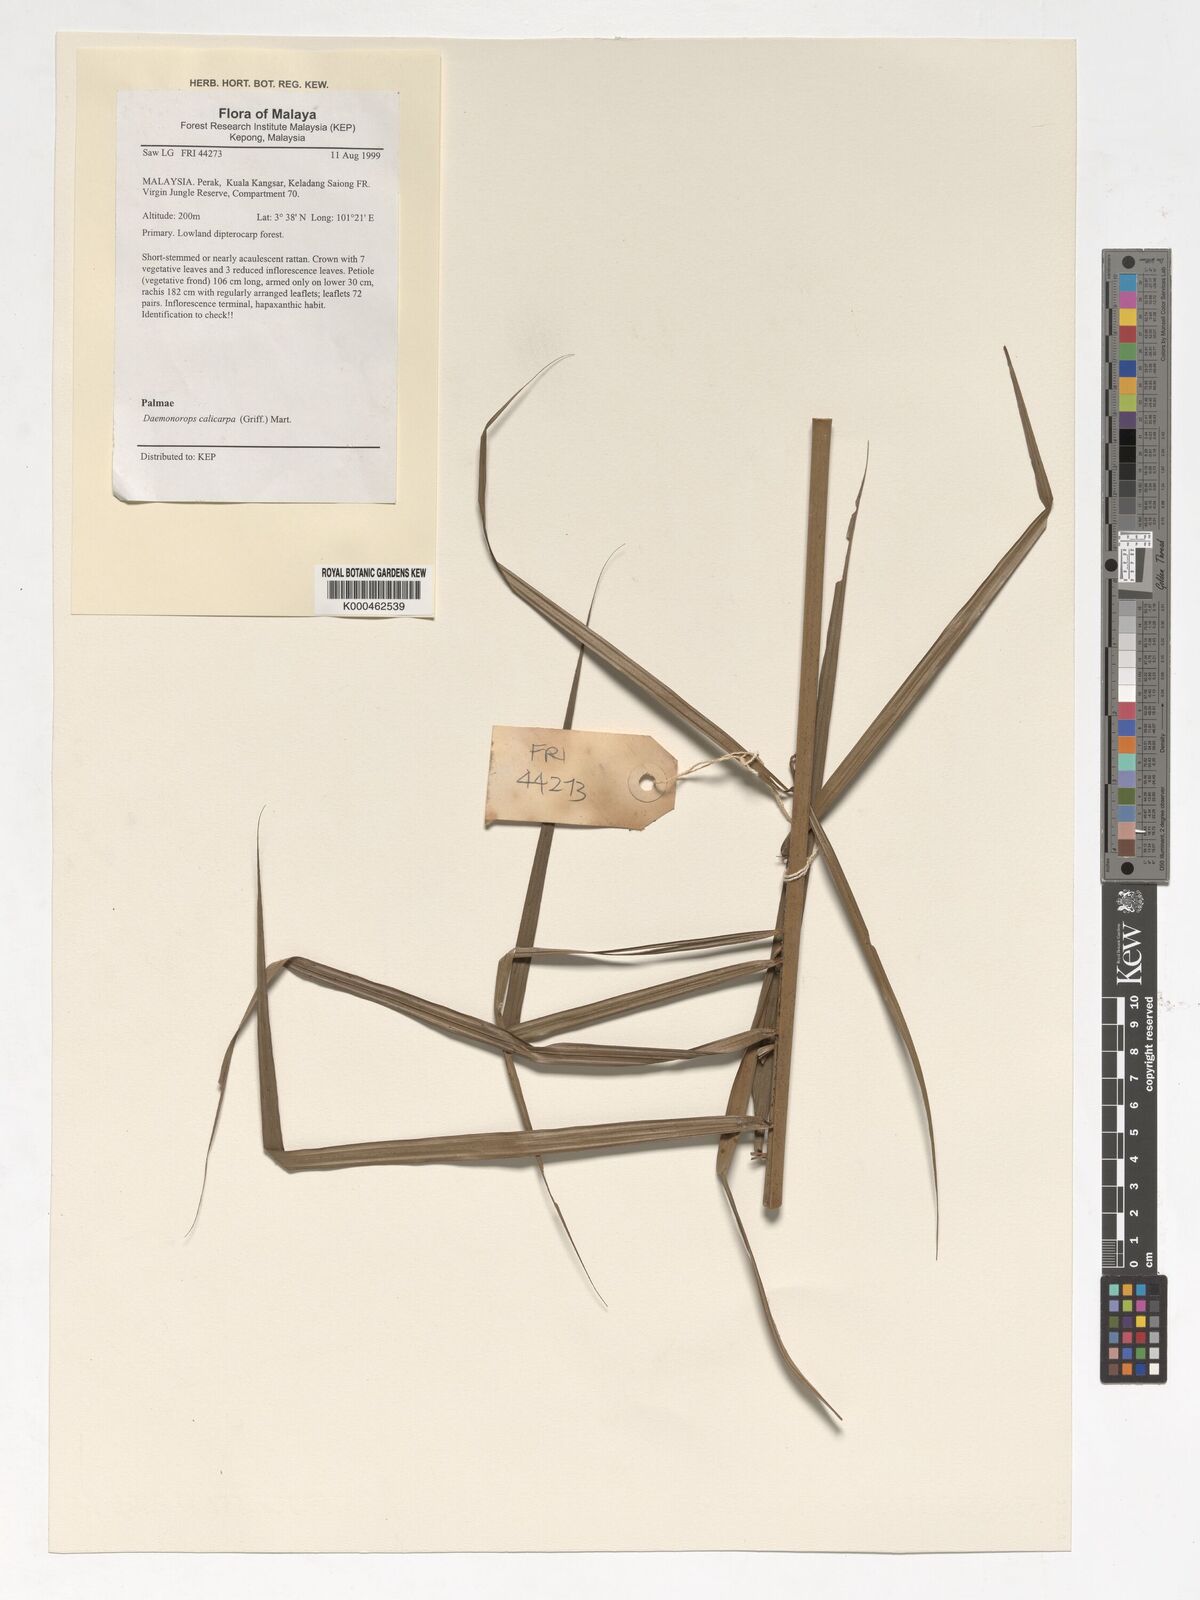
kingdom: Plantae
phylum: Tracheophyta
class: Liliopsida
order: Arecales
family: Arecaceae
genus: Calamus
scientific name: Calamus calicarpus
